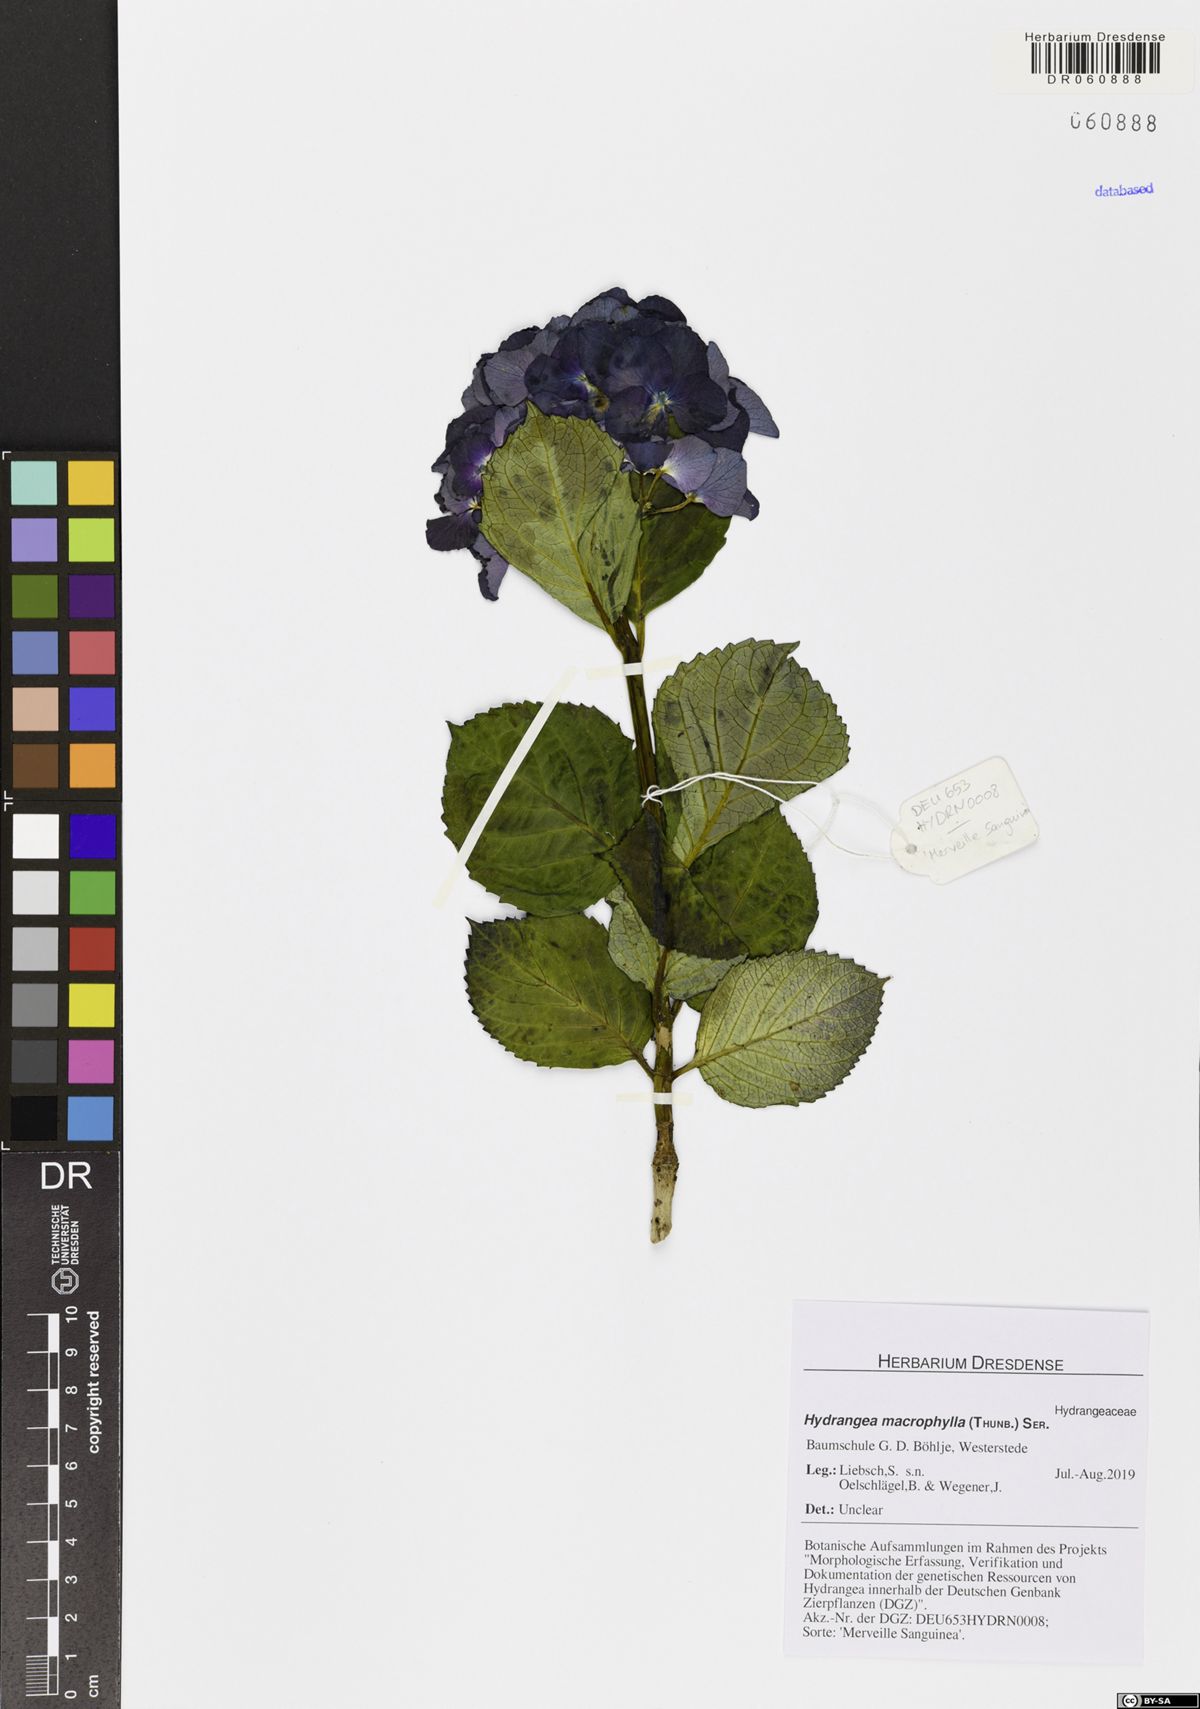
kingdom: Plantae
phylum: Tracheophyta
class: Magnoliopsida
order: Cornales
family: Hydrangeaceae
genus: Hydrangea
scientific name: Hydrangea macrophylla
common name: Hydrangea
